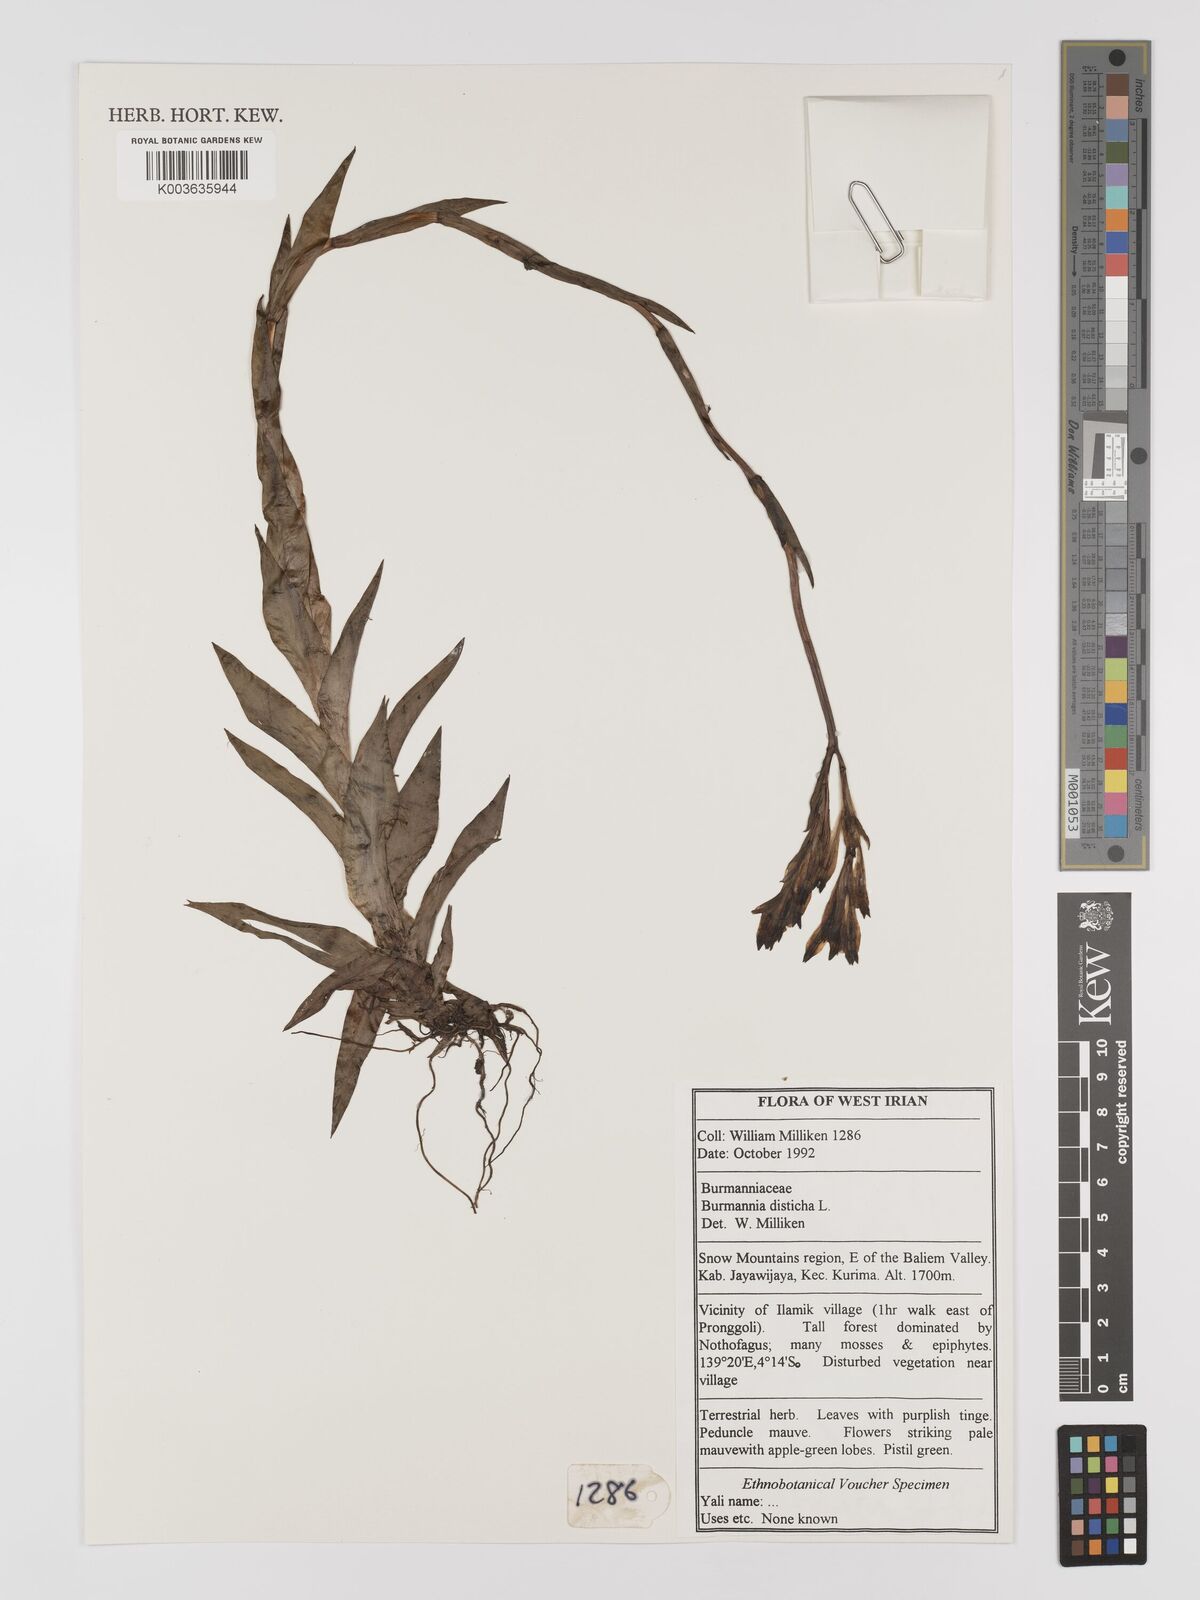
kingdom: Plantae
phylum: Tracheophyta
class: Liliopsida
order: Dioscoreales
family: Burmanniaceae
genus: Burmannia
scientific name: Burmannia disticha
